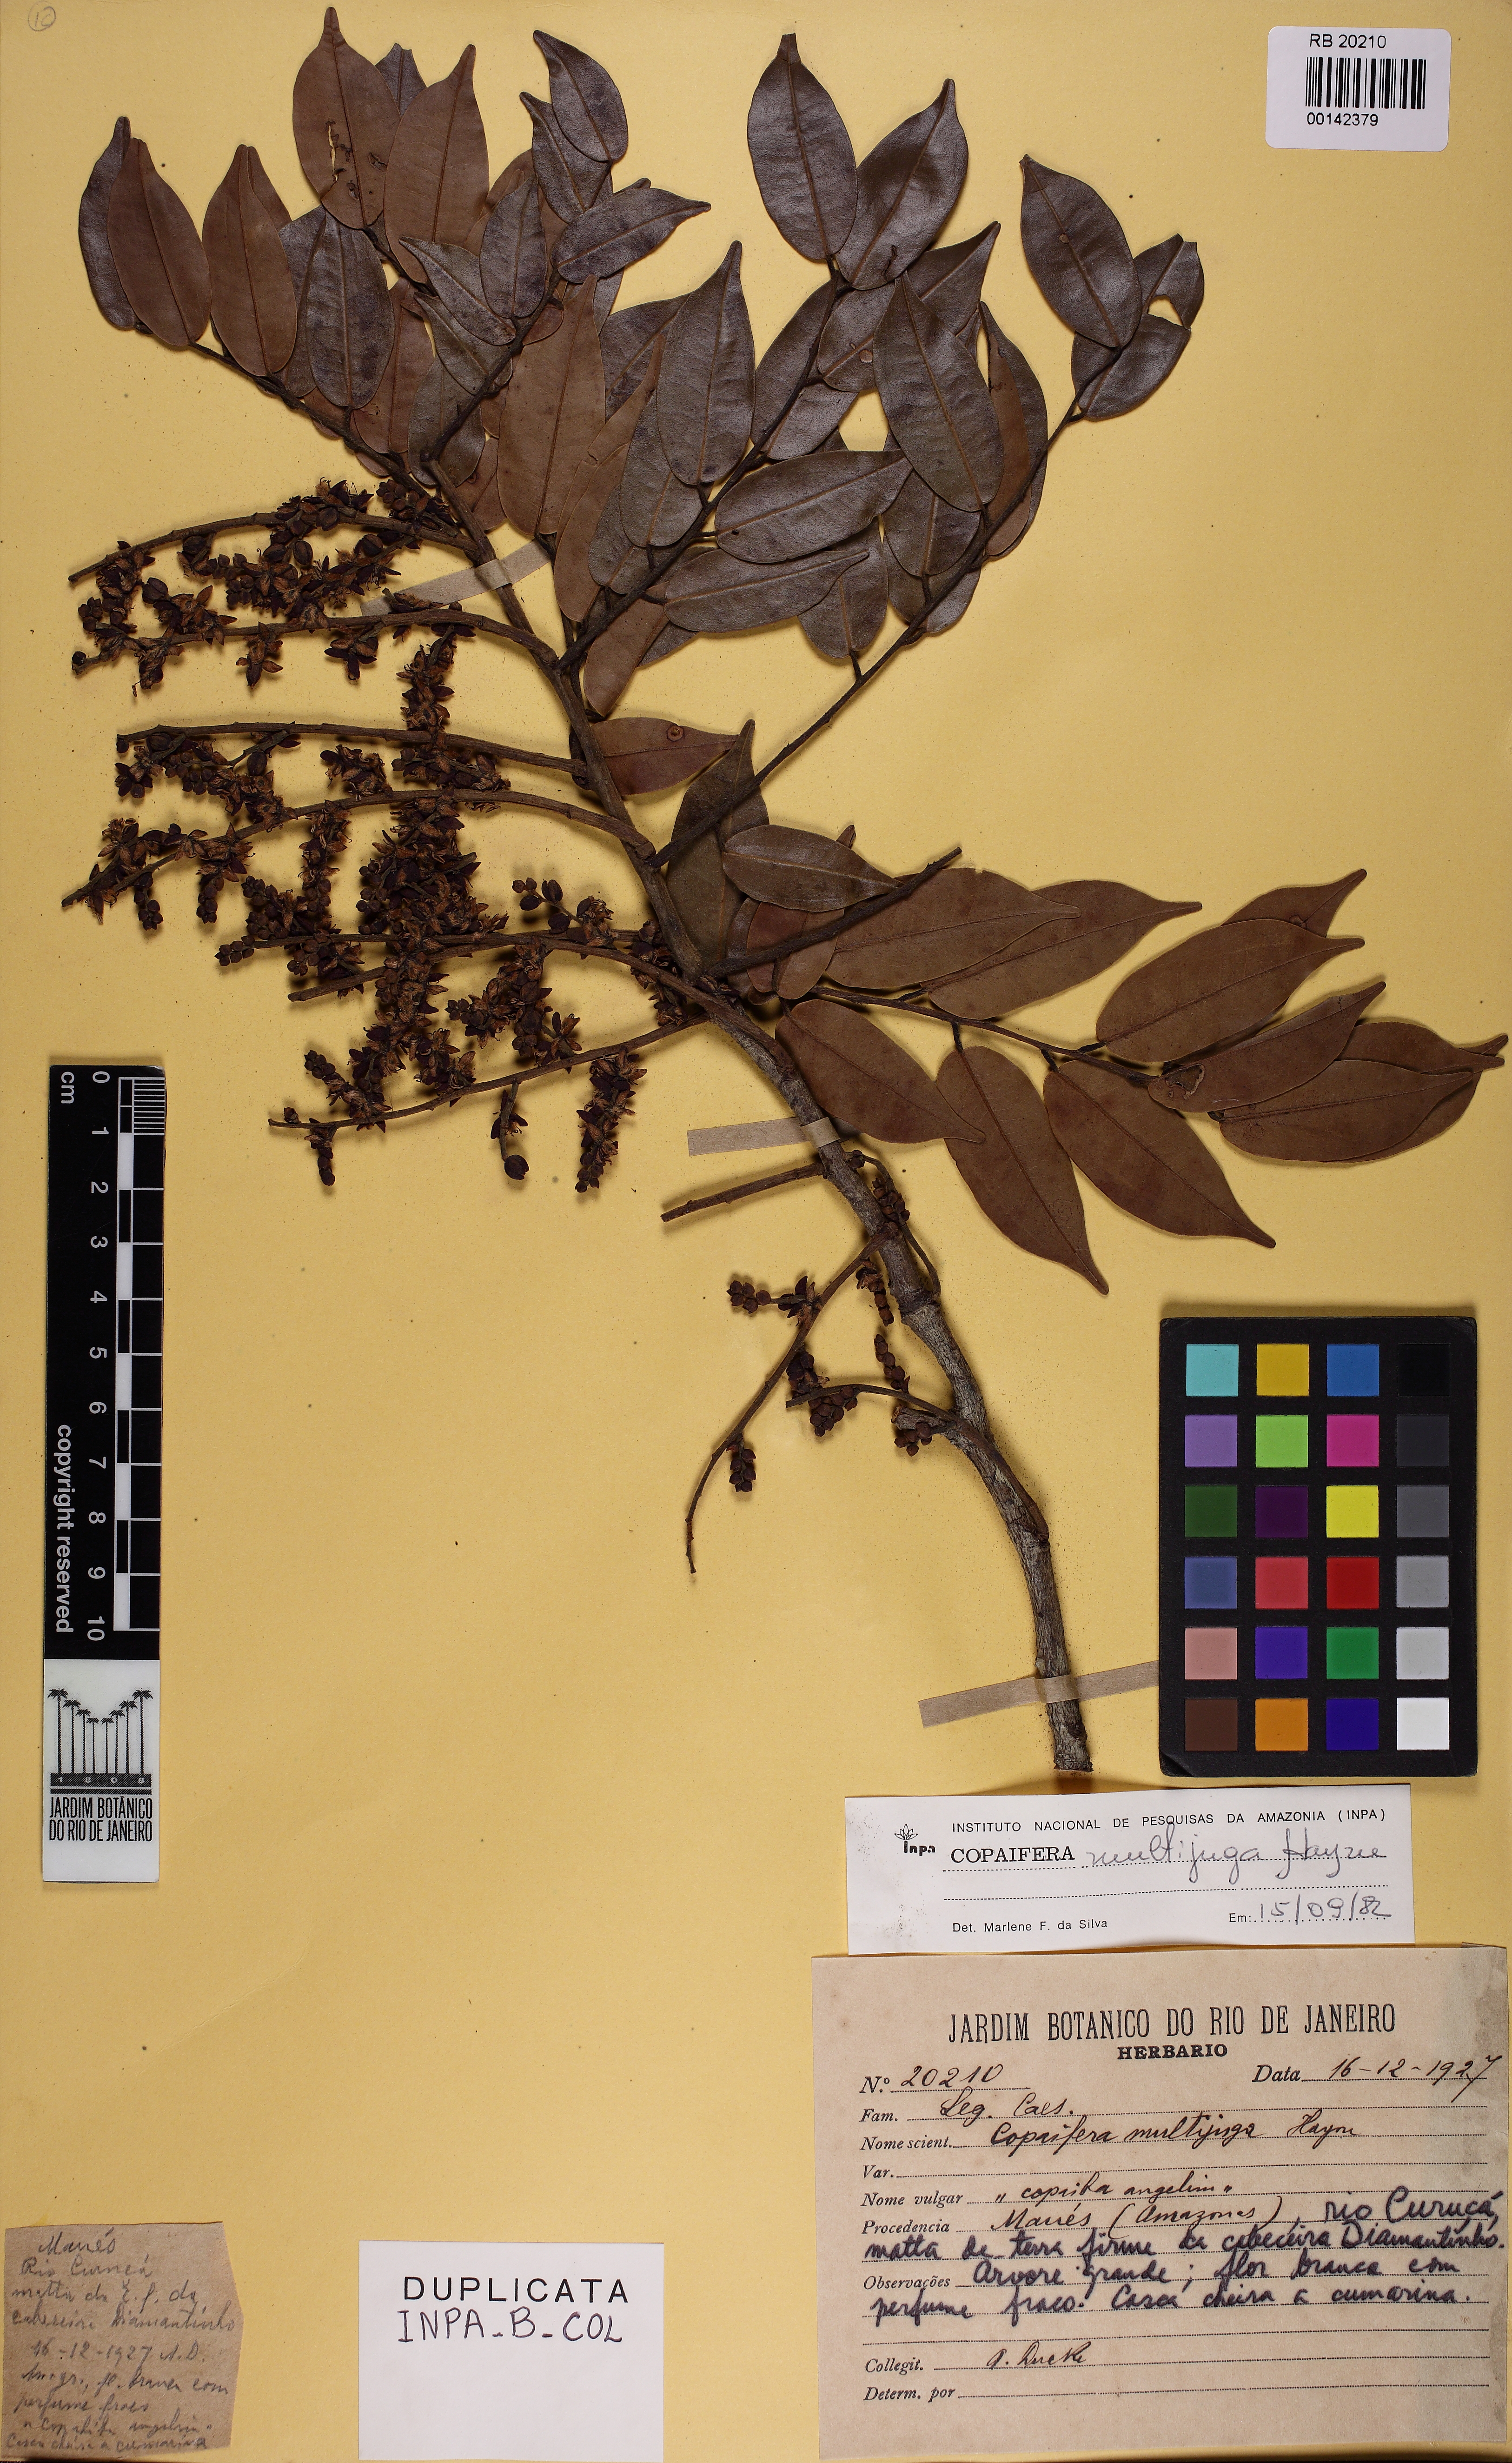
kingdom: Plantae
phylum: Tracheophyta
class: Magnoliopsida
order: Fabales
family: Fabaceae
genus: Copaifera
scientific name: Copaifera multijuga
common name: Brazilian copaiba
